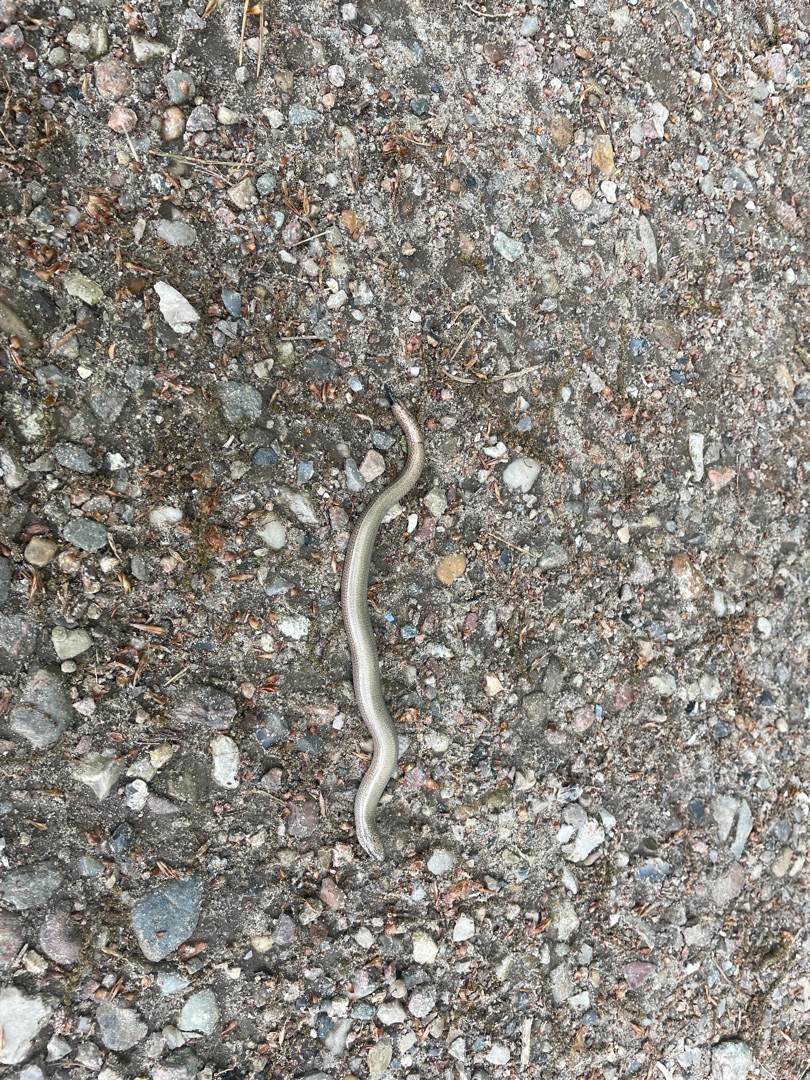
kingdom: Animalia
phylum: Chordata
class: Squamata
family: Anguidae
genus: Anguis
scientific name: Anguis fragilis
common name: Stålorm
